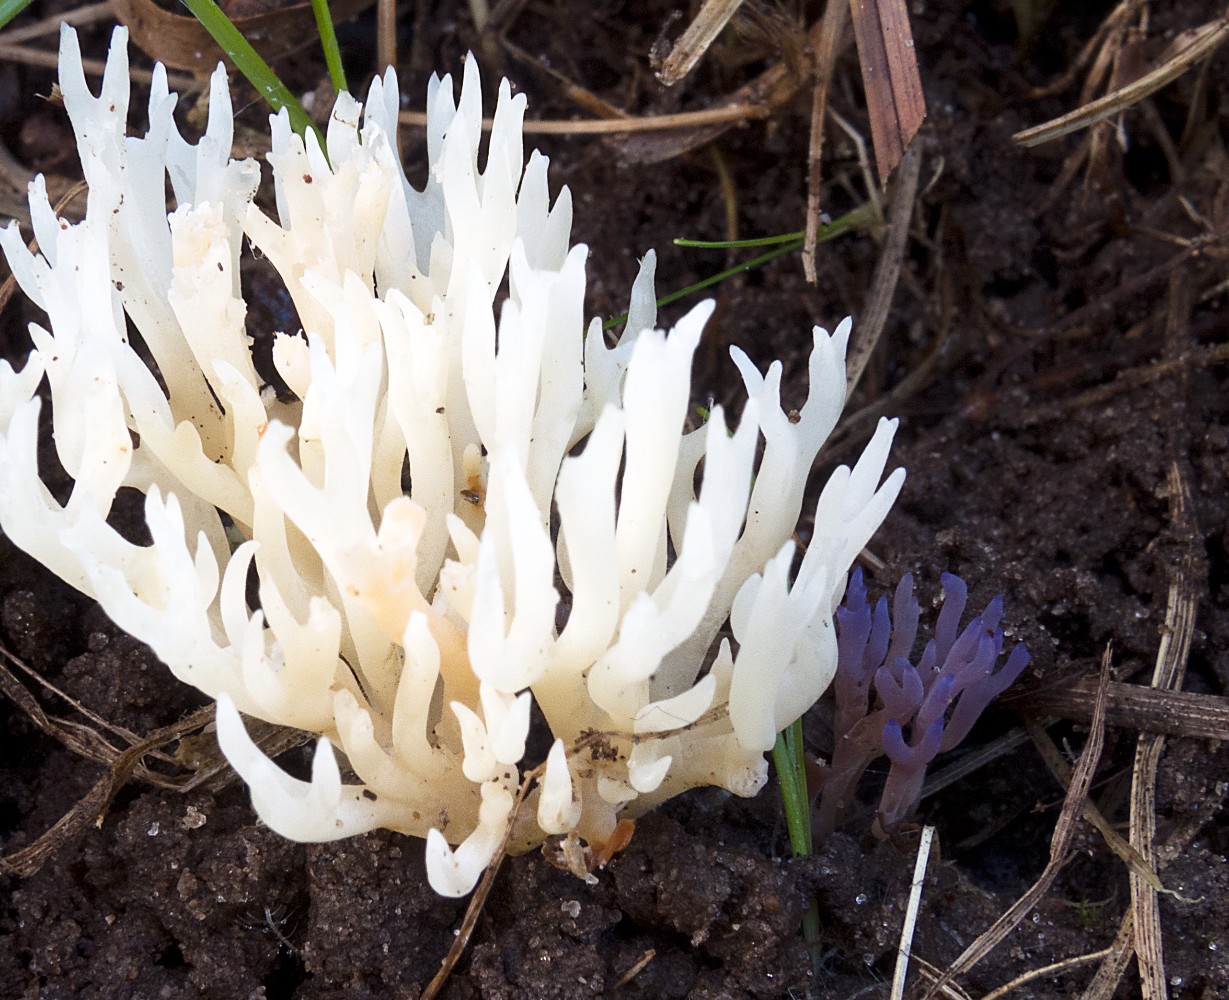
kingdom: Fungi
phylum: Basidiomycota
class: Agaricomycetes
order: Agaricales
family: Clavariaceae
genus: Ramariopsis
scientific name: Ramariopsis pulchella
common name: violet køllesvamp
